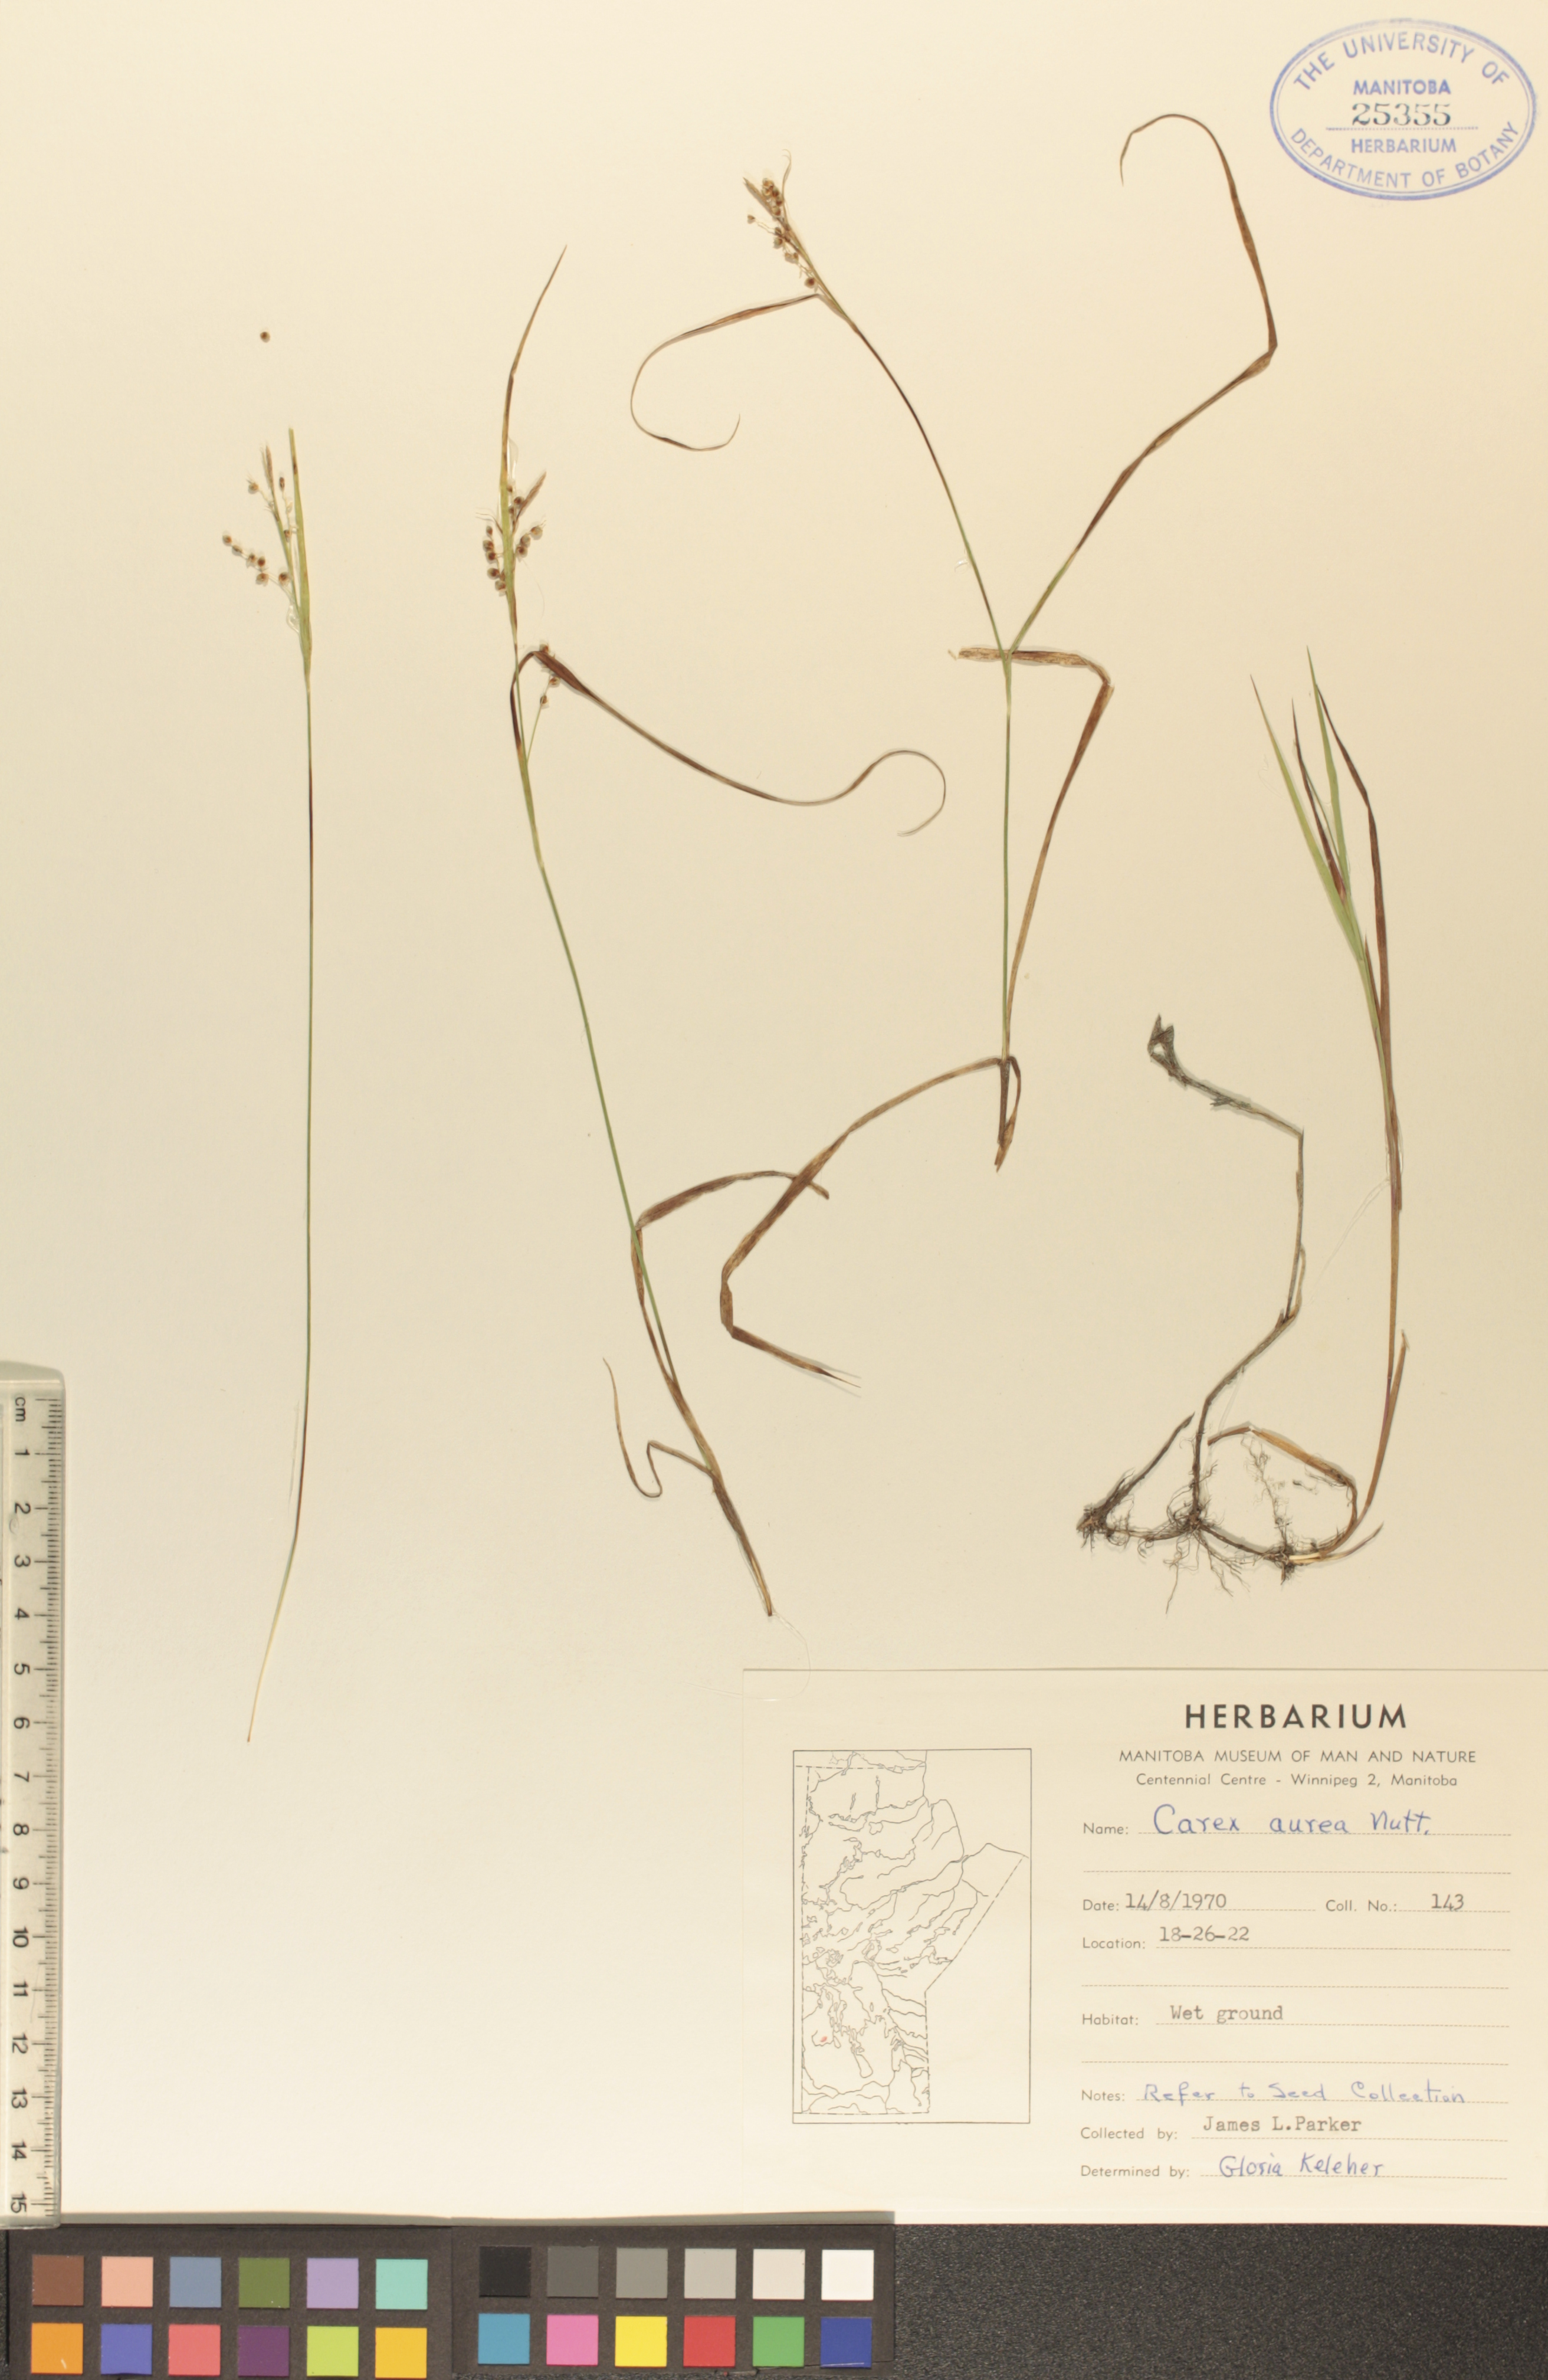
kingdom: Plantae
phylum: Tracheophyta
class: Liliopsida
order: Poales
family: Cyperaceae
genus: Carex
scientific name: Carex aurea
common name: Golden sedge
